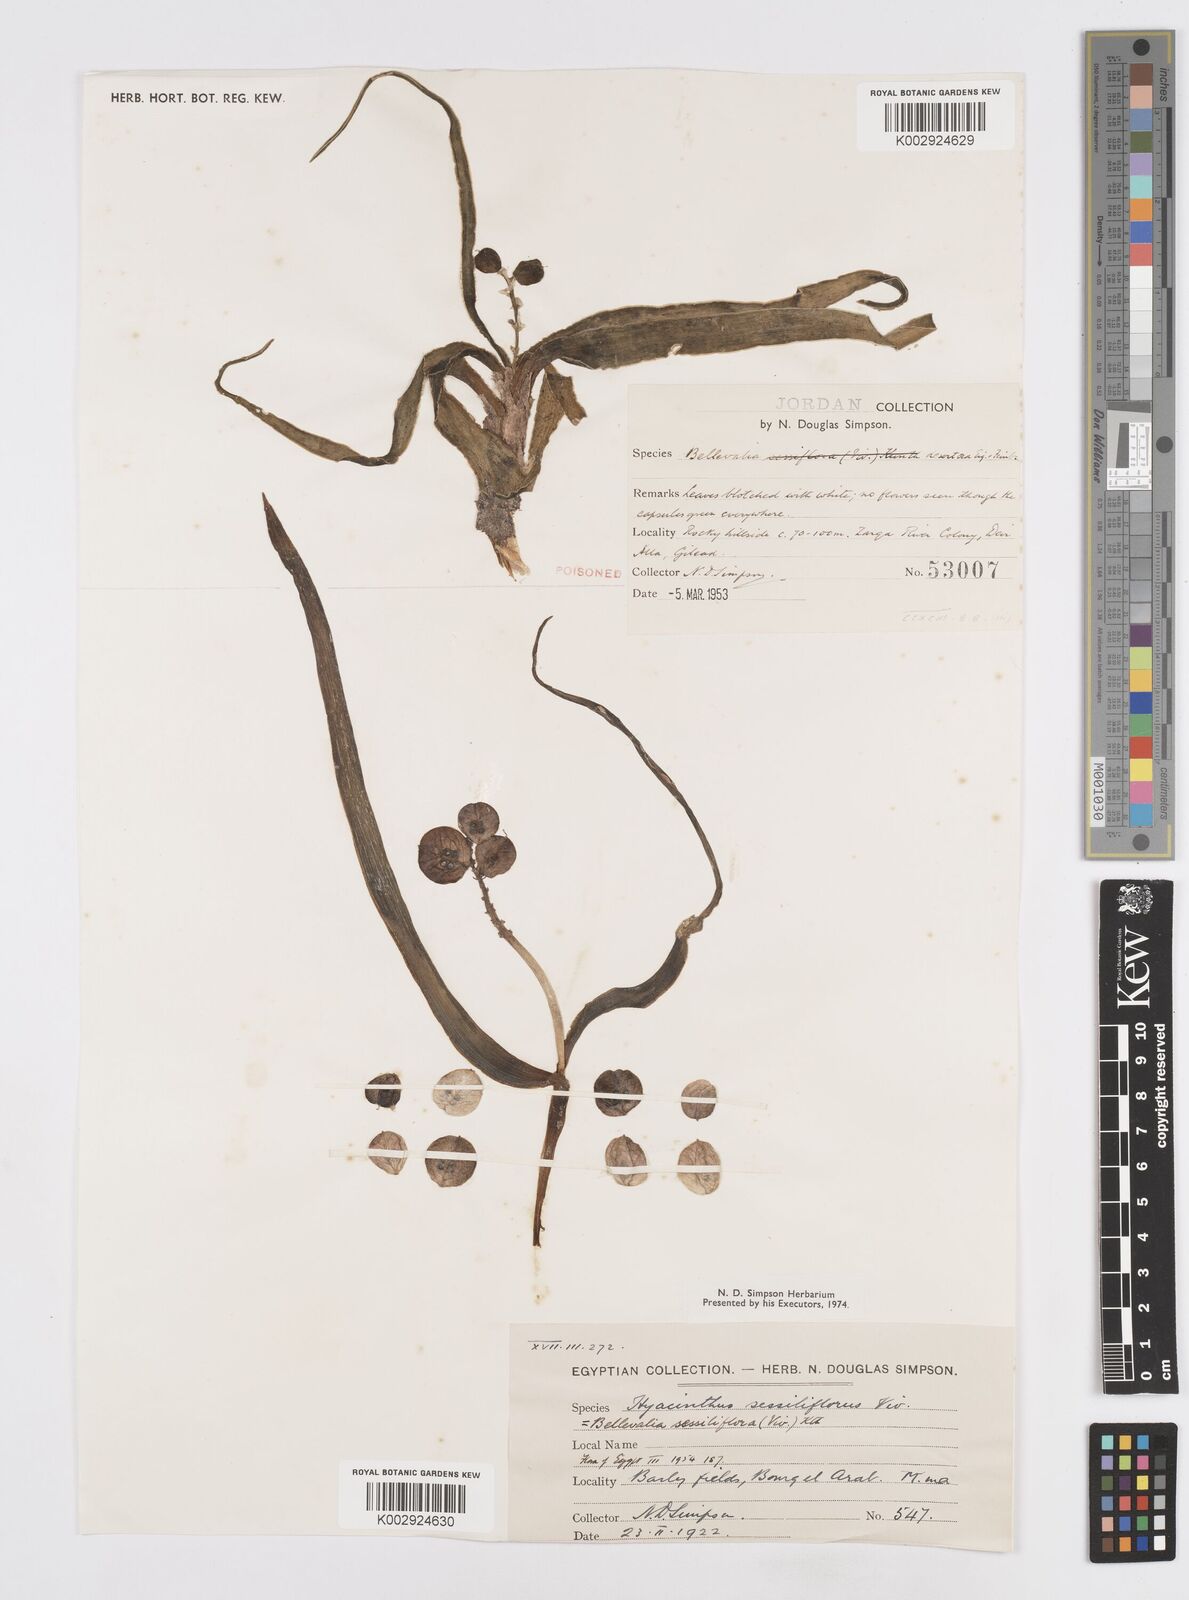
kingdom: Plantae
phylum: Tracheophyta
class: Liliopsida
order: Asparagales
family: Asparagaceae
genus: Bellevalia
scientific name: Bellevalia sessiliflora
